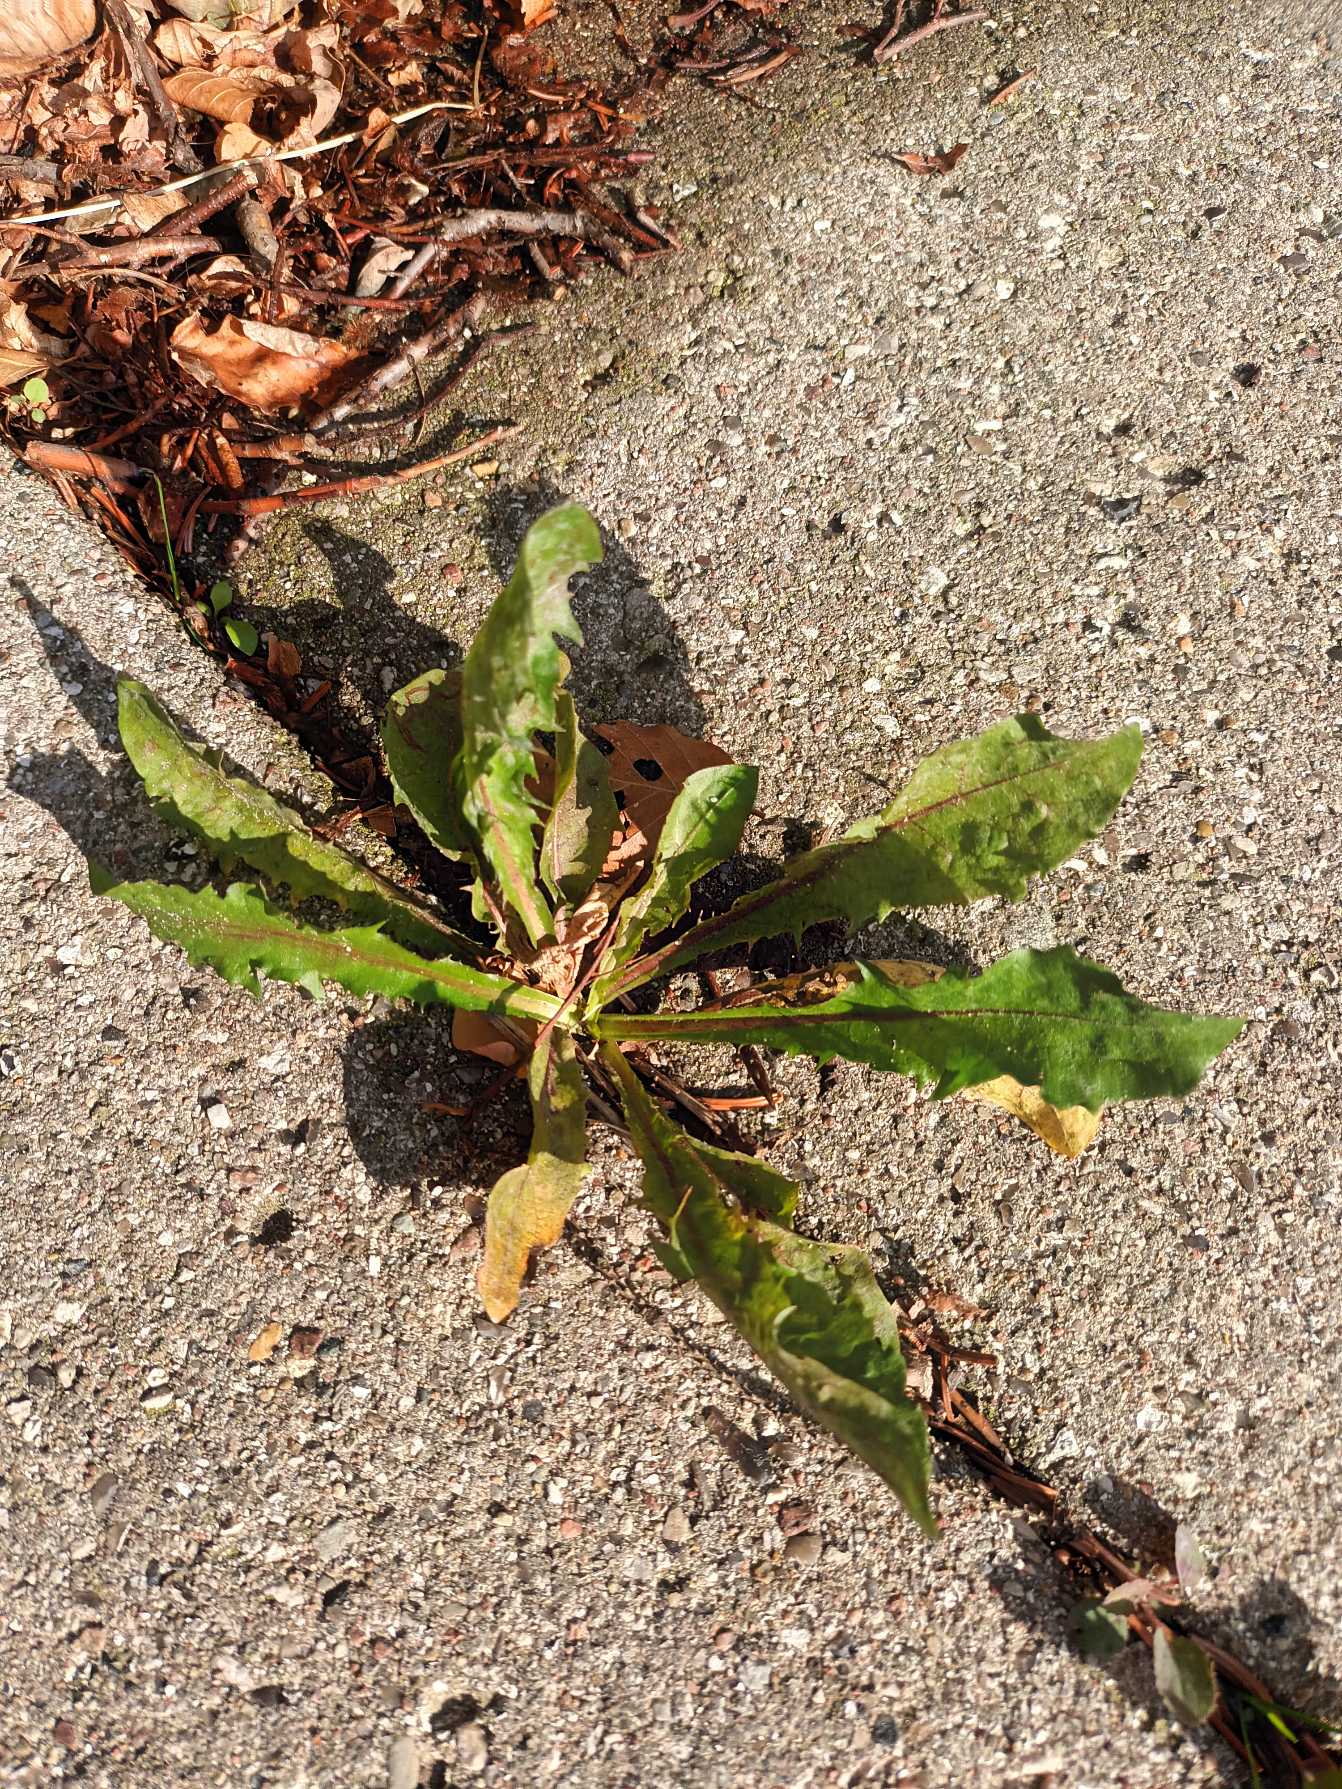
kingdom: Plantae
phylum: Tracheophyta
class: Magnoliopsida
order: Asterales
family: Asteraceae
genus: Taraxacum
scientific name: Taraxacum
